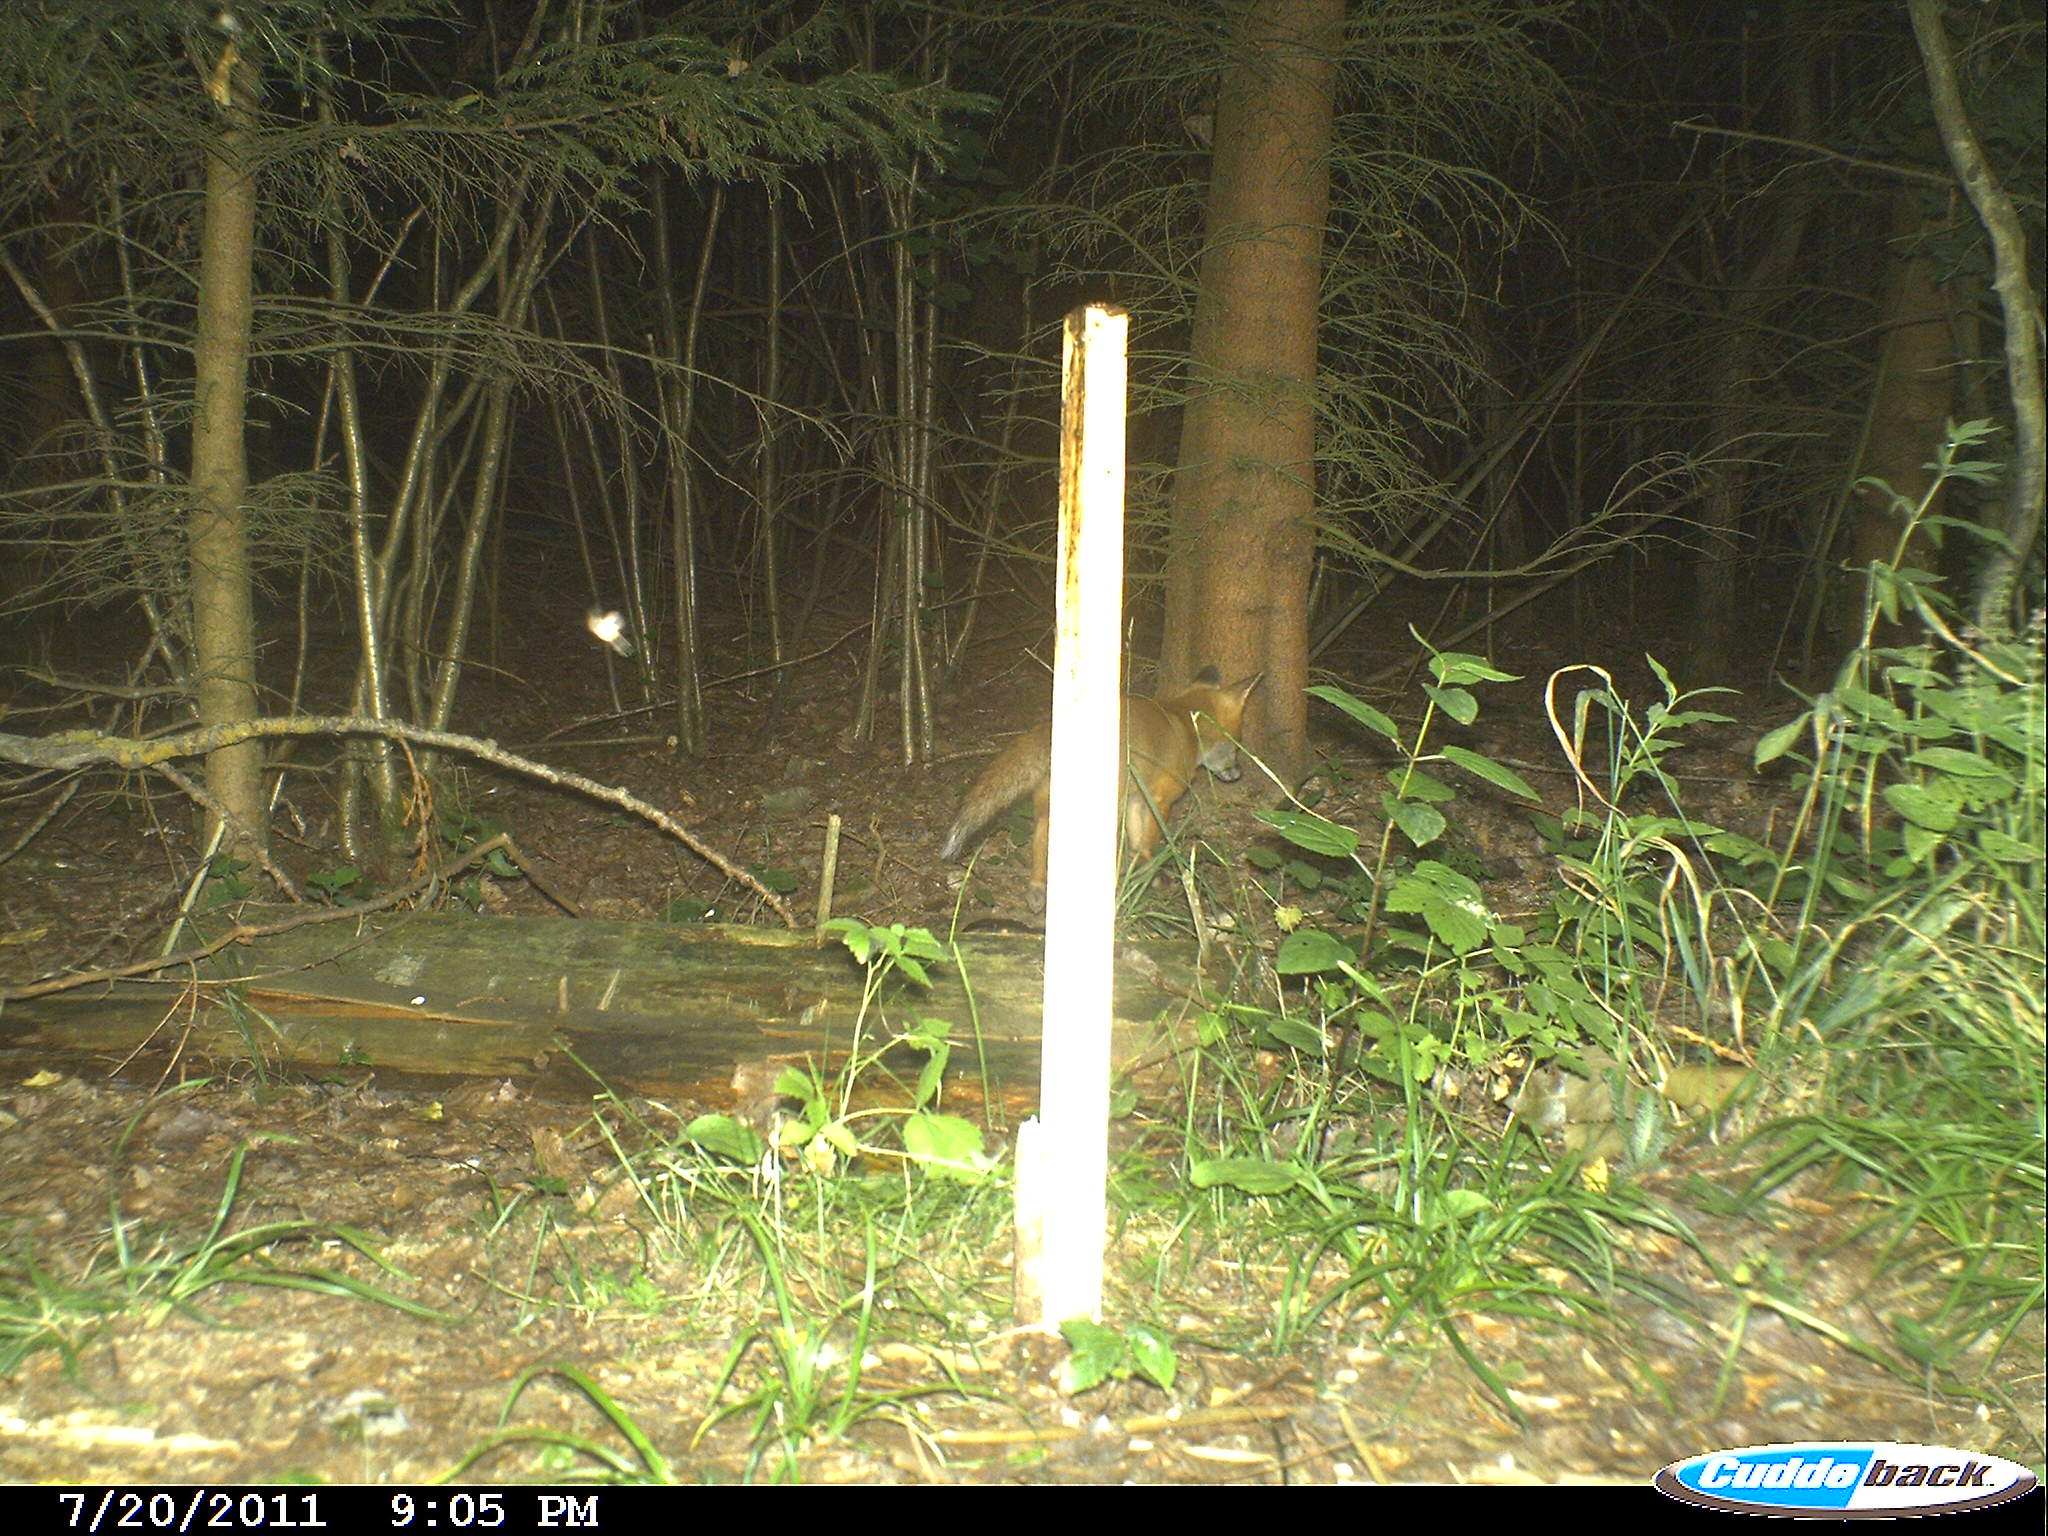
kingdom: Animalia
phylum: Chordata
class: Mammalia
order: Carnivora
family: Canidae
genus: Vulpes
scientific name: Vulpes vulpes
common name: Red fox
